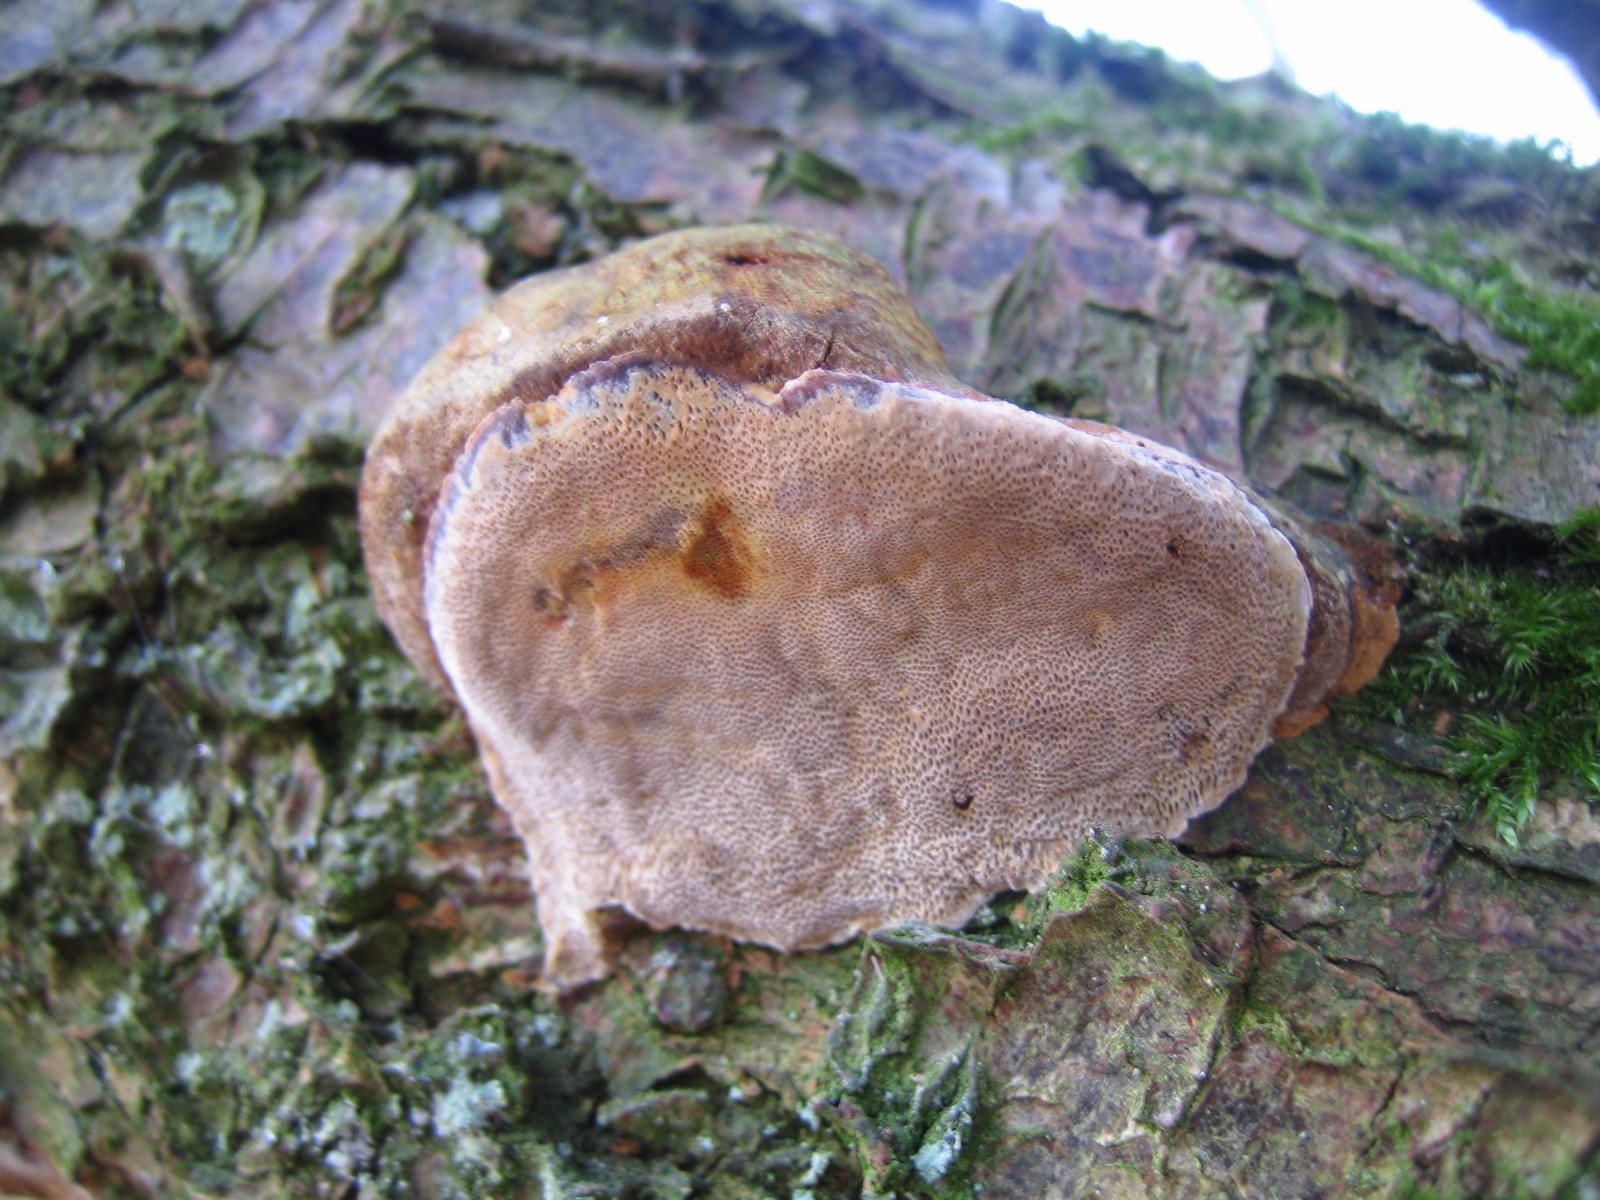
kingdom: Fungi
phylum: Basidiomycota
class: Agaricomycetes
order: Hymenochaetales
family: Hymenochaetaceae
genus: Phellinus
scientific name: Phellinus pomaceus
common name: blomme-ildporesvamp
